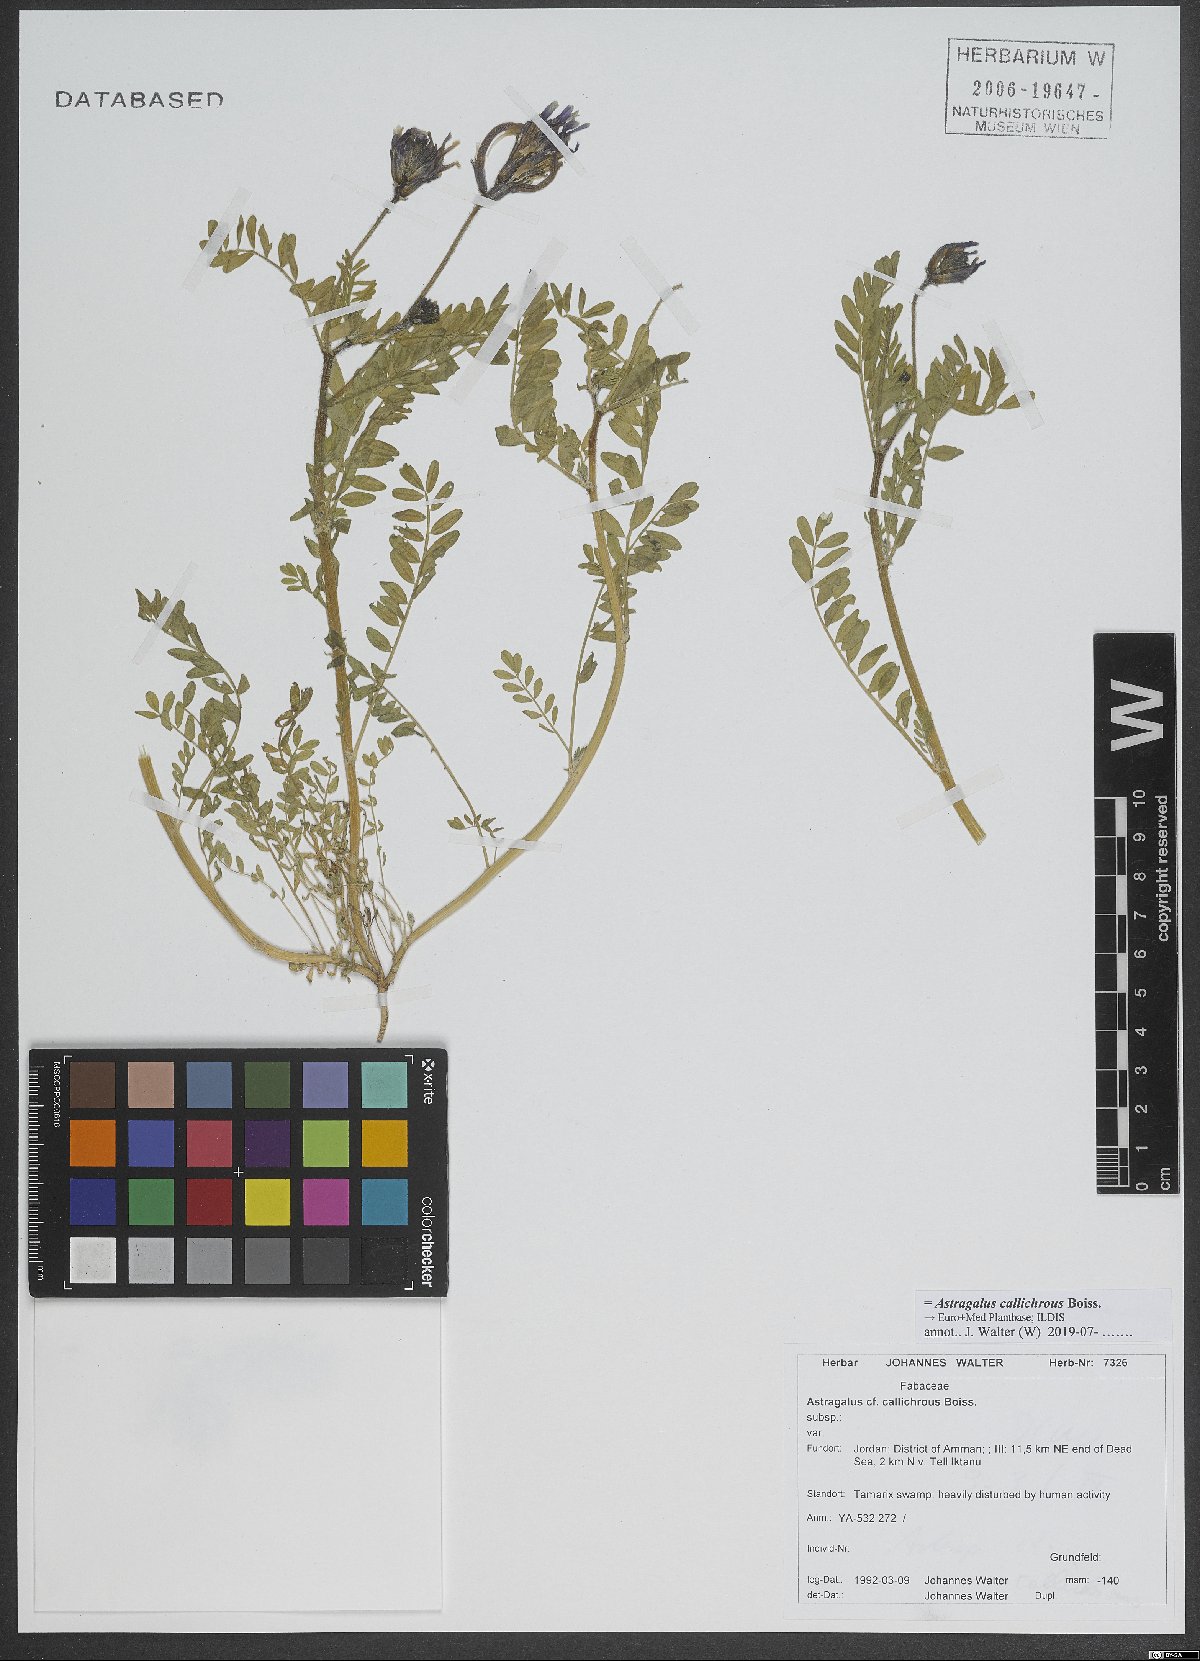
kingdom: Plantae
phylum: Tracheophyta
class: Magnoliopsida
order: Fabales
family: Fabaceae
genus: Astragalus
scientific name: Astragalus callichrous
